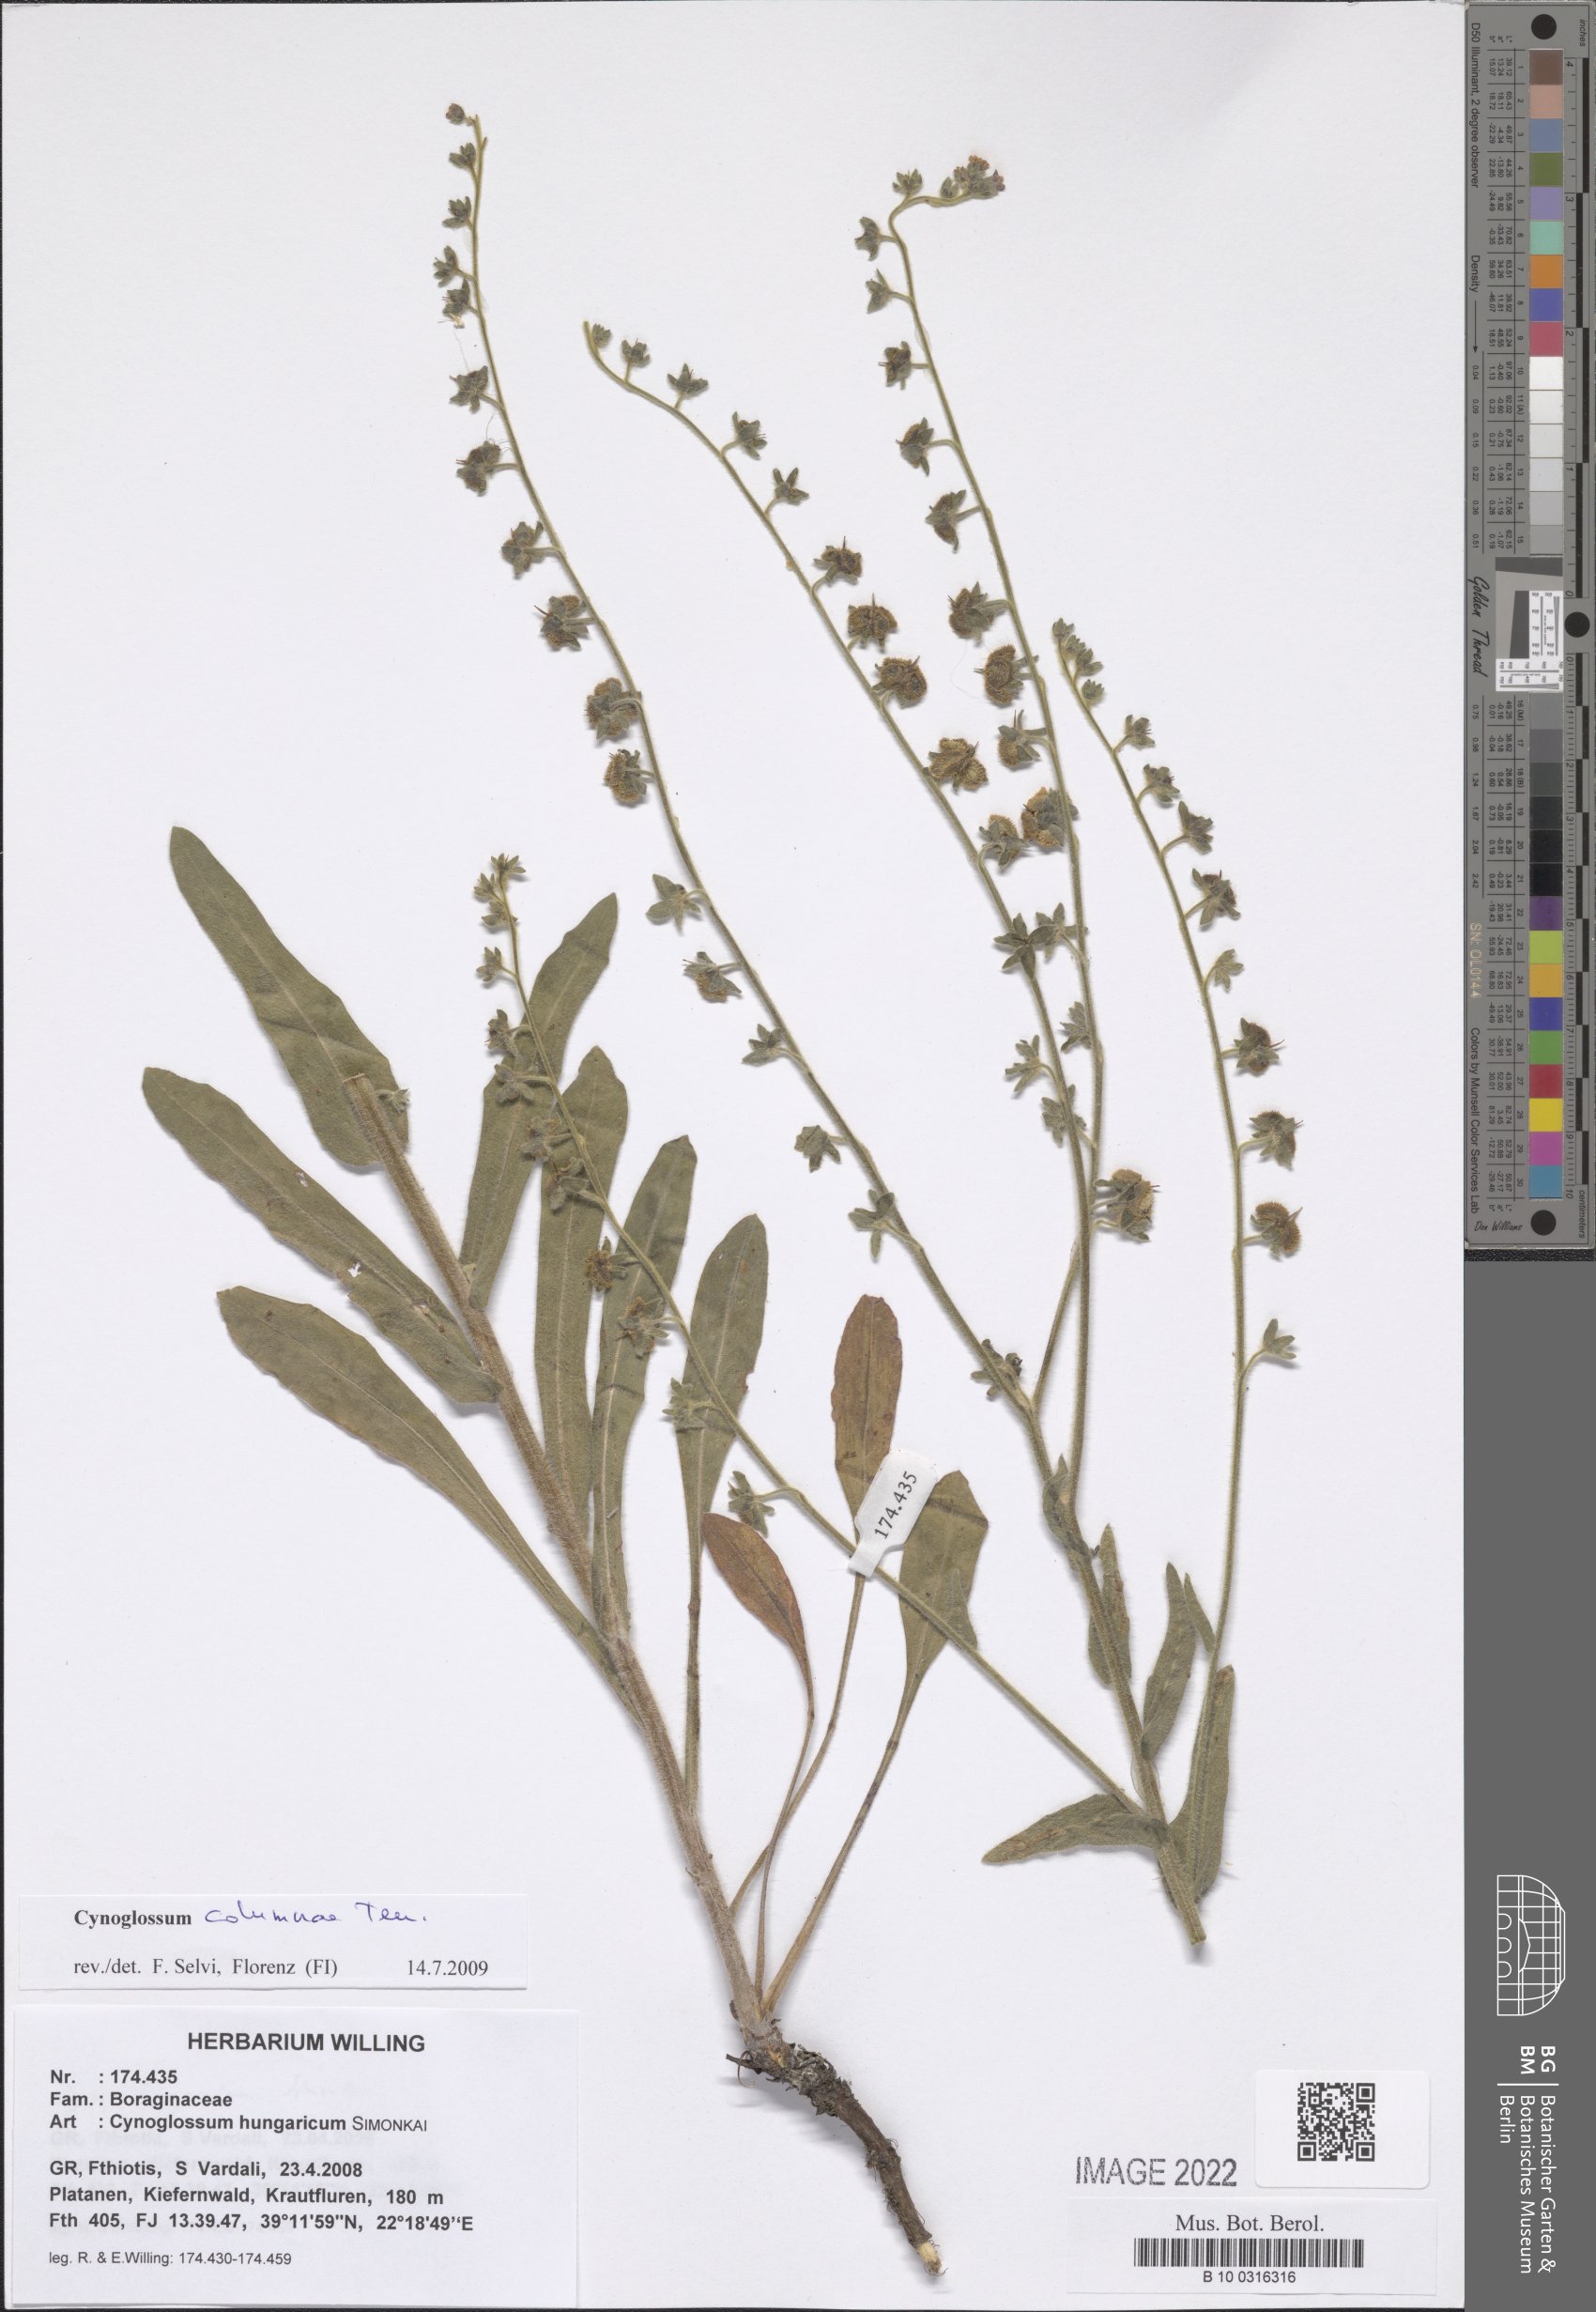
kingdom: Plantae
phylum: Tracheophyta
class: Magnoliopsida
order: Boraginales
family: Boraginaceae
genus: Rindera
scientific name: Rindera columnae
